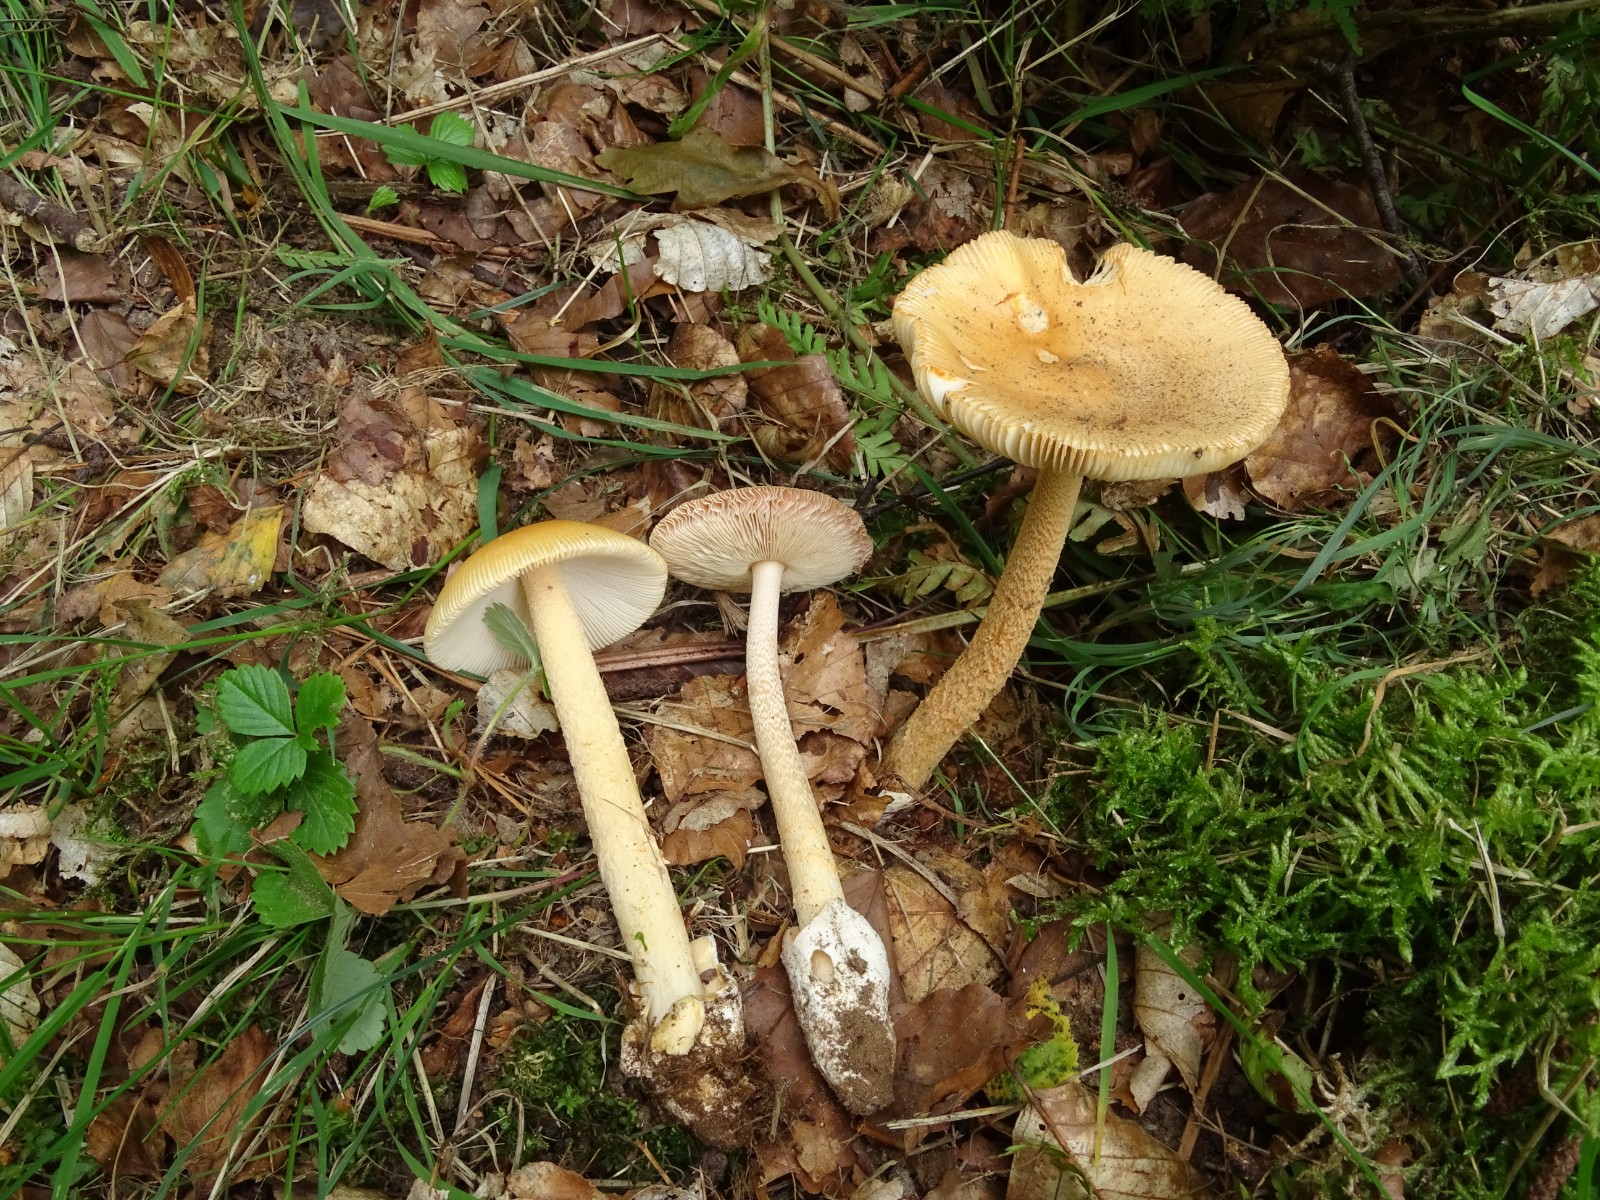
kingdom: Fungi
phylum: Basidiomycota
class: Agaricomycetes
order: Agaricales
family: Amanitaceae
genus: Amanita
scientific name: Amanita crocea
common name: gylden kam-fluesvamp
